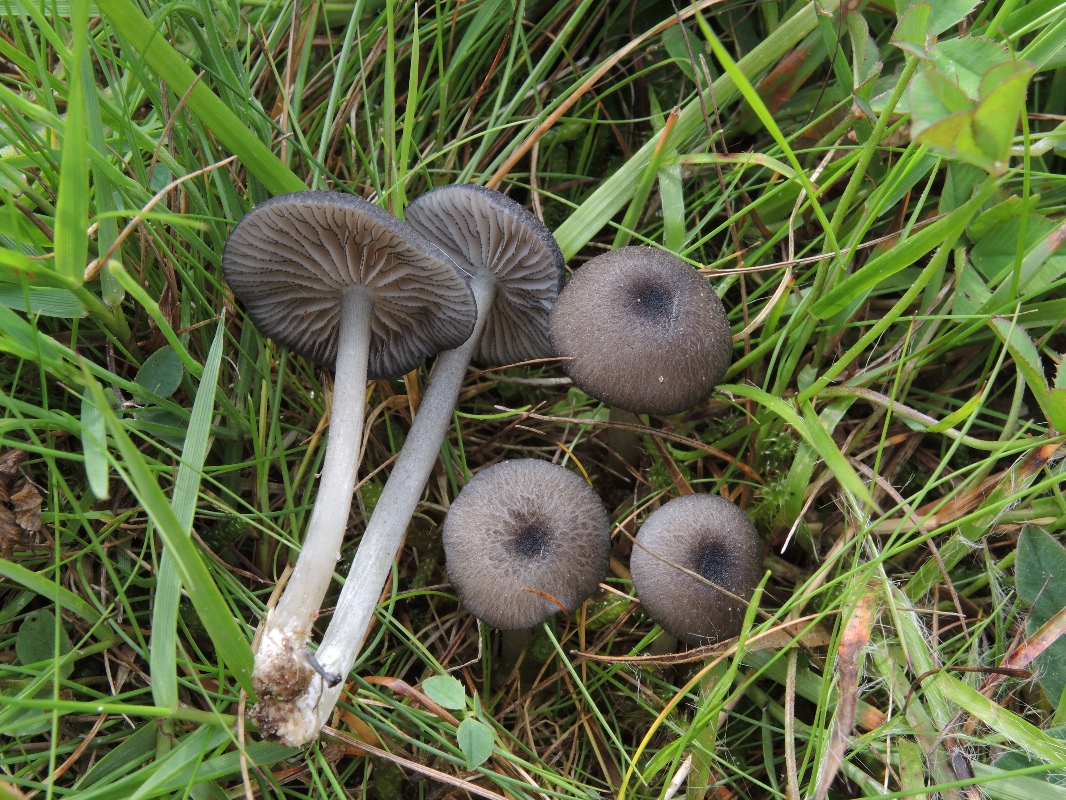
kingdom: Fungi
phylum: Basidiomycota
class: Agaricomycetes
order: Agaricales
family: Entolomataceae
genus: Entoloma
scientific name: Entoloma
